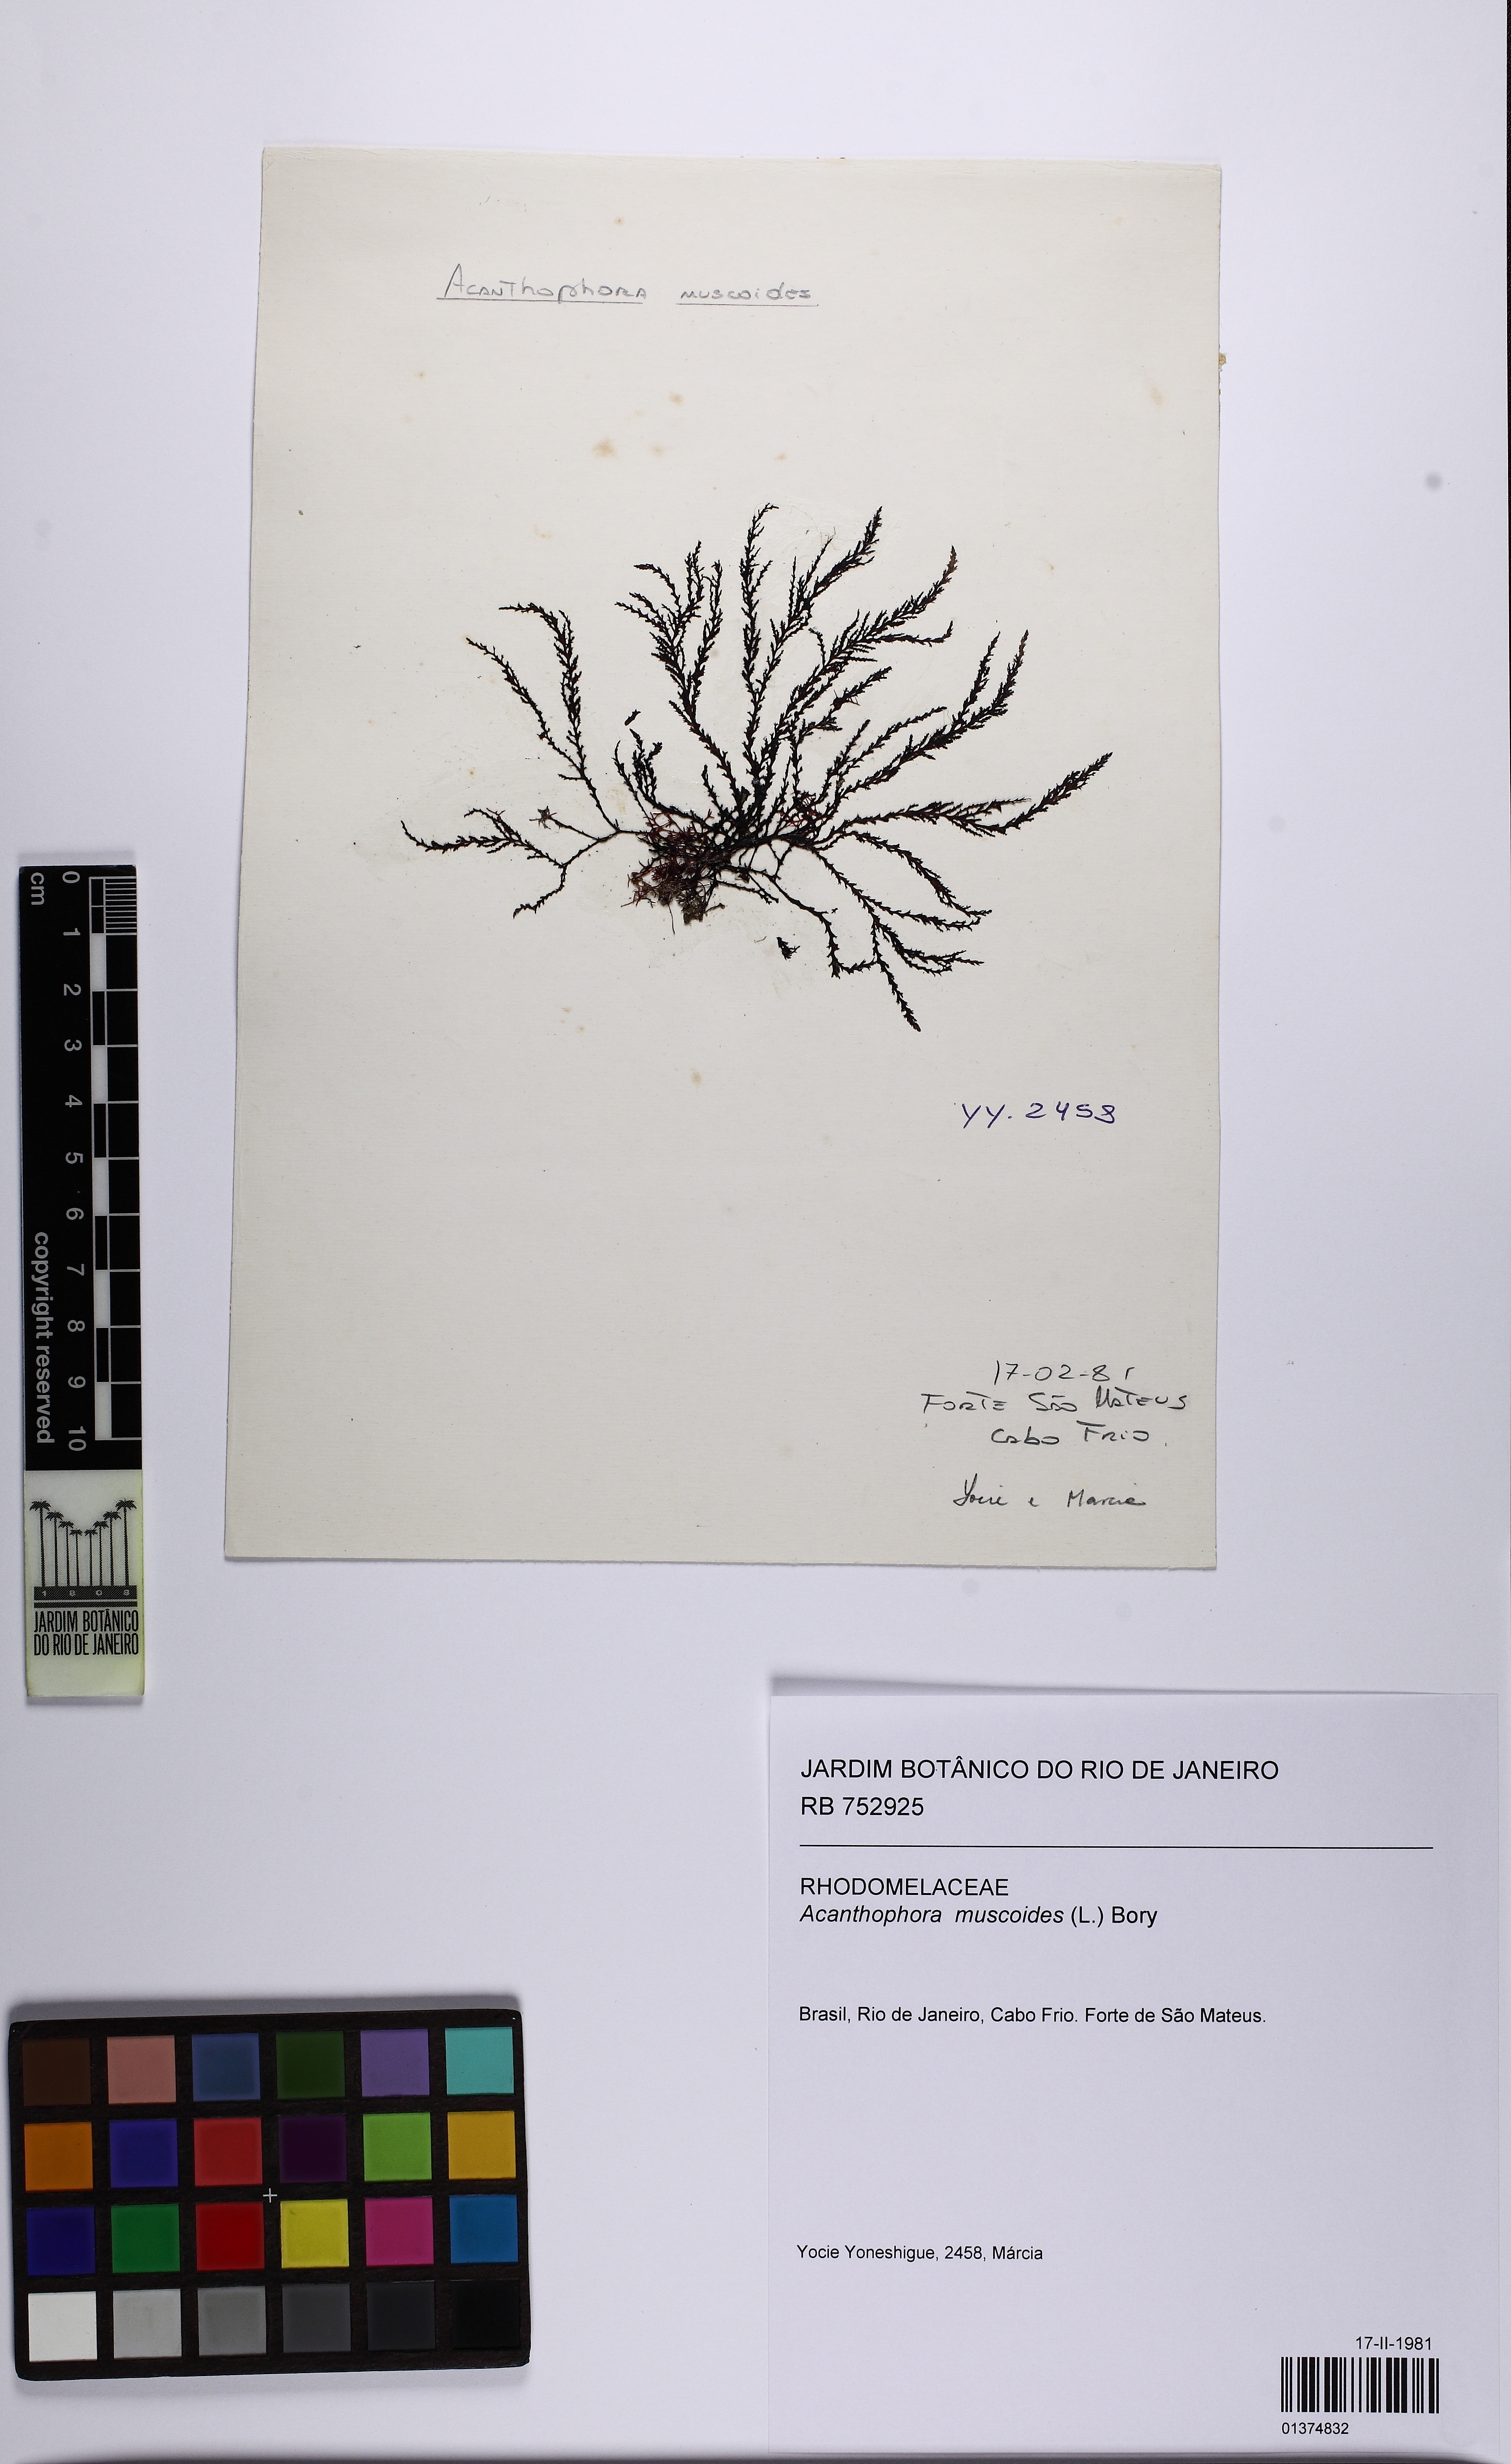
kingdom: Plantae
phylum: Rhodophyta
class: Florideophyceae
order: Ceramiales
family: Rhodomelaceae
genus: Acanthophora
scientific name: Acanthophora muscoides
